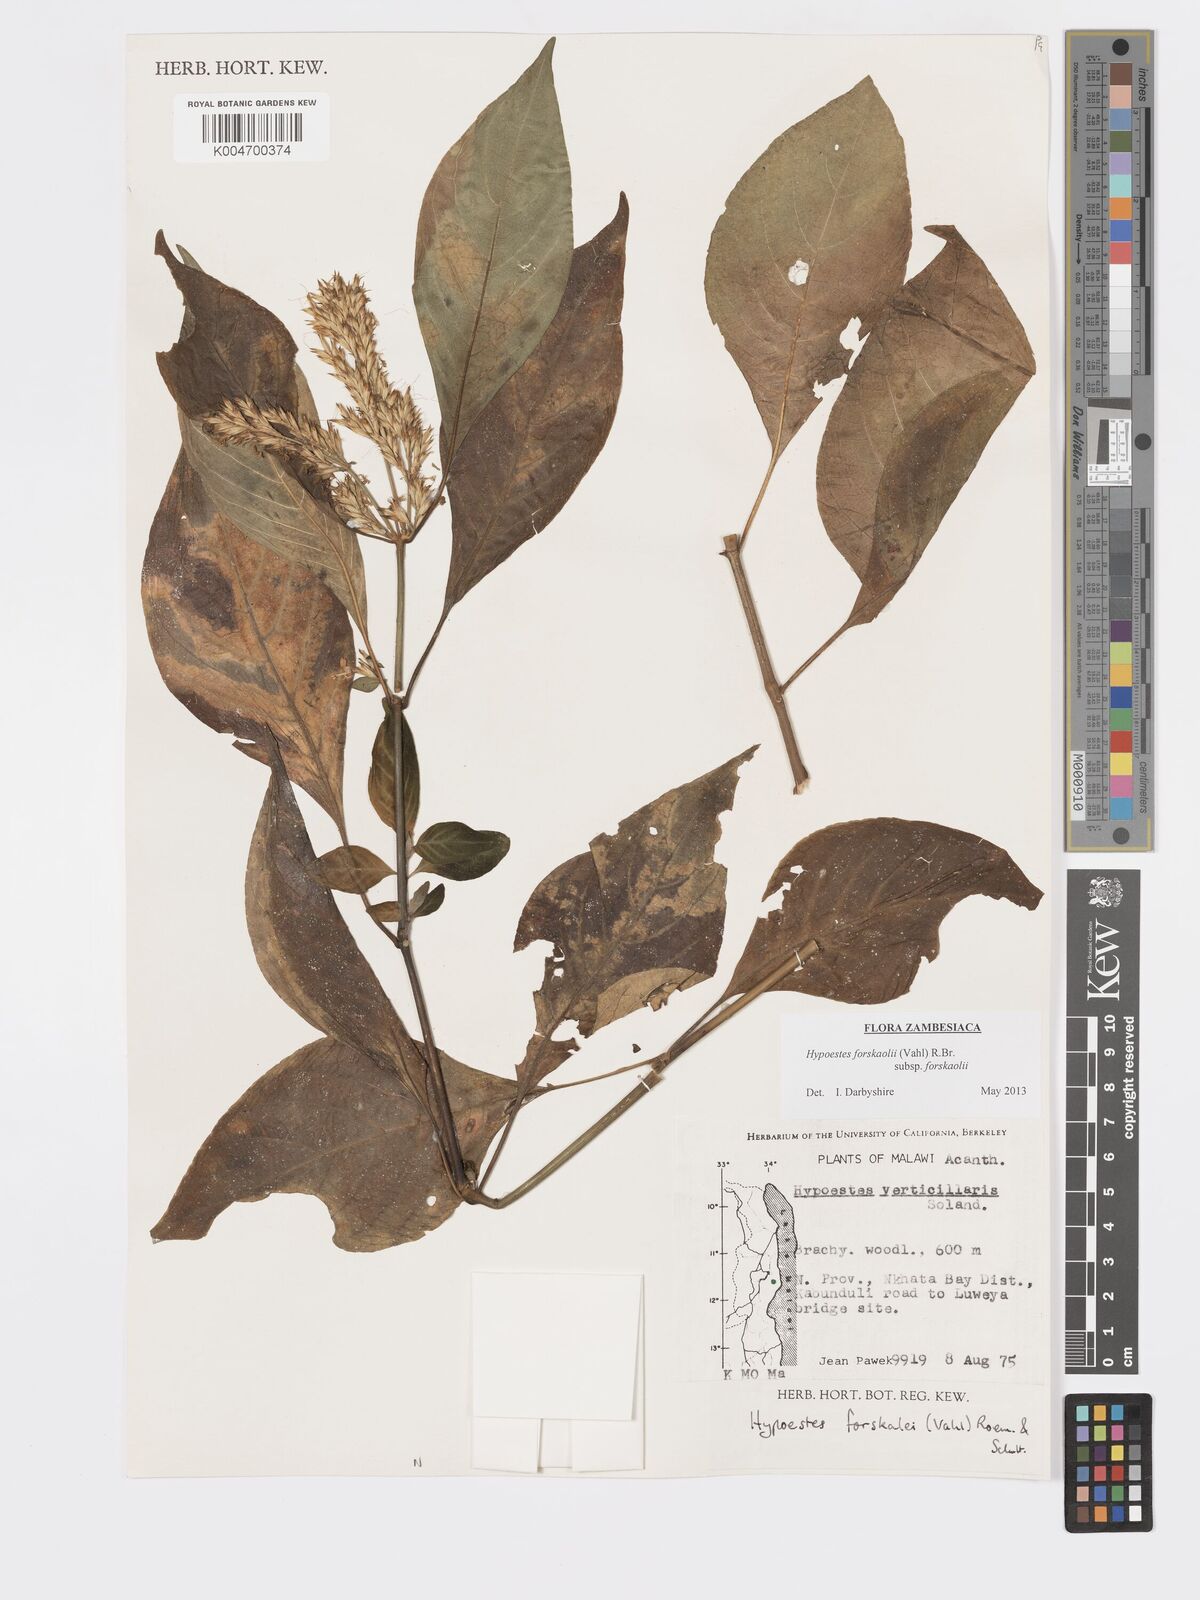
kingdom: Plantae
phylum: Tracheophyta
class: Magnoliopsida
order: Lamiales
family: Acanthaceae
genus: Hypoestes
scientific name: Hypoestes forskaolii
